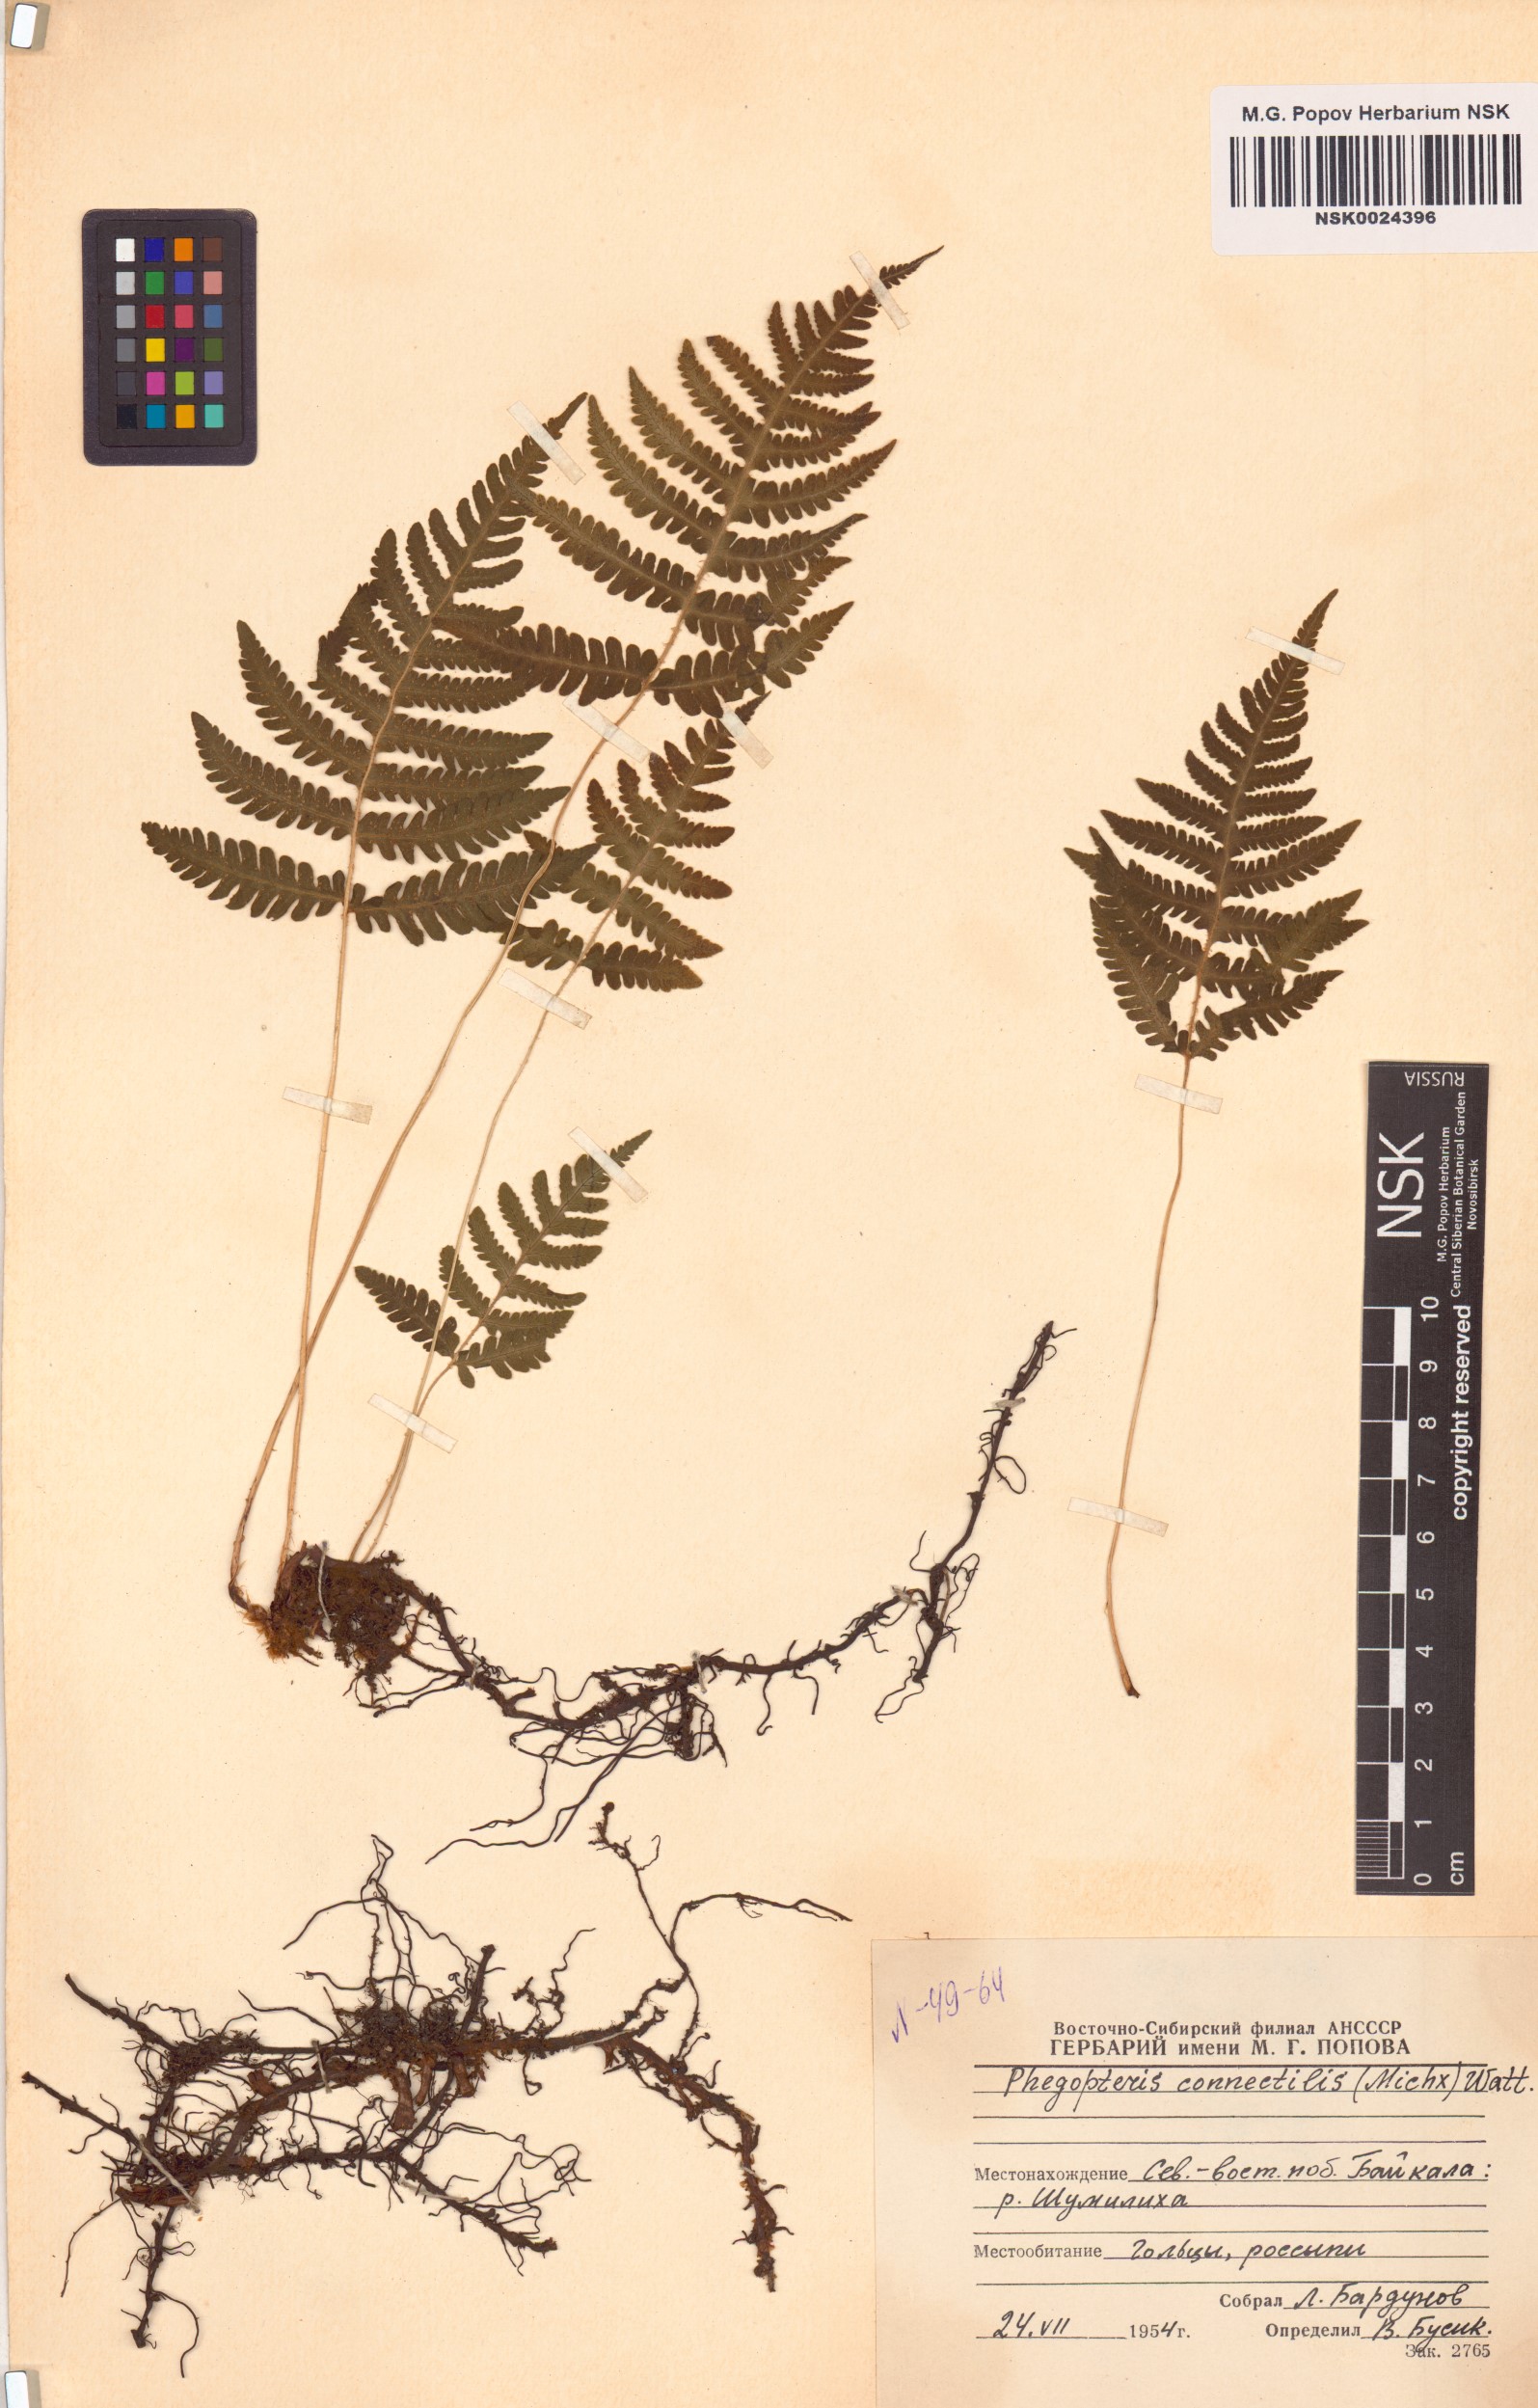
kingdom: Plantae
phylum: Tracheophyta
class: Polypodiopsida
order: Polypodiales
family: Thelypteridaceae
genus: Phegopteris
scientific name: Phegopteris connectilis
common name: Beech fern
